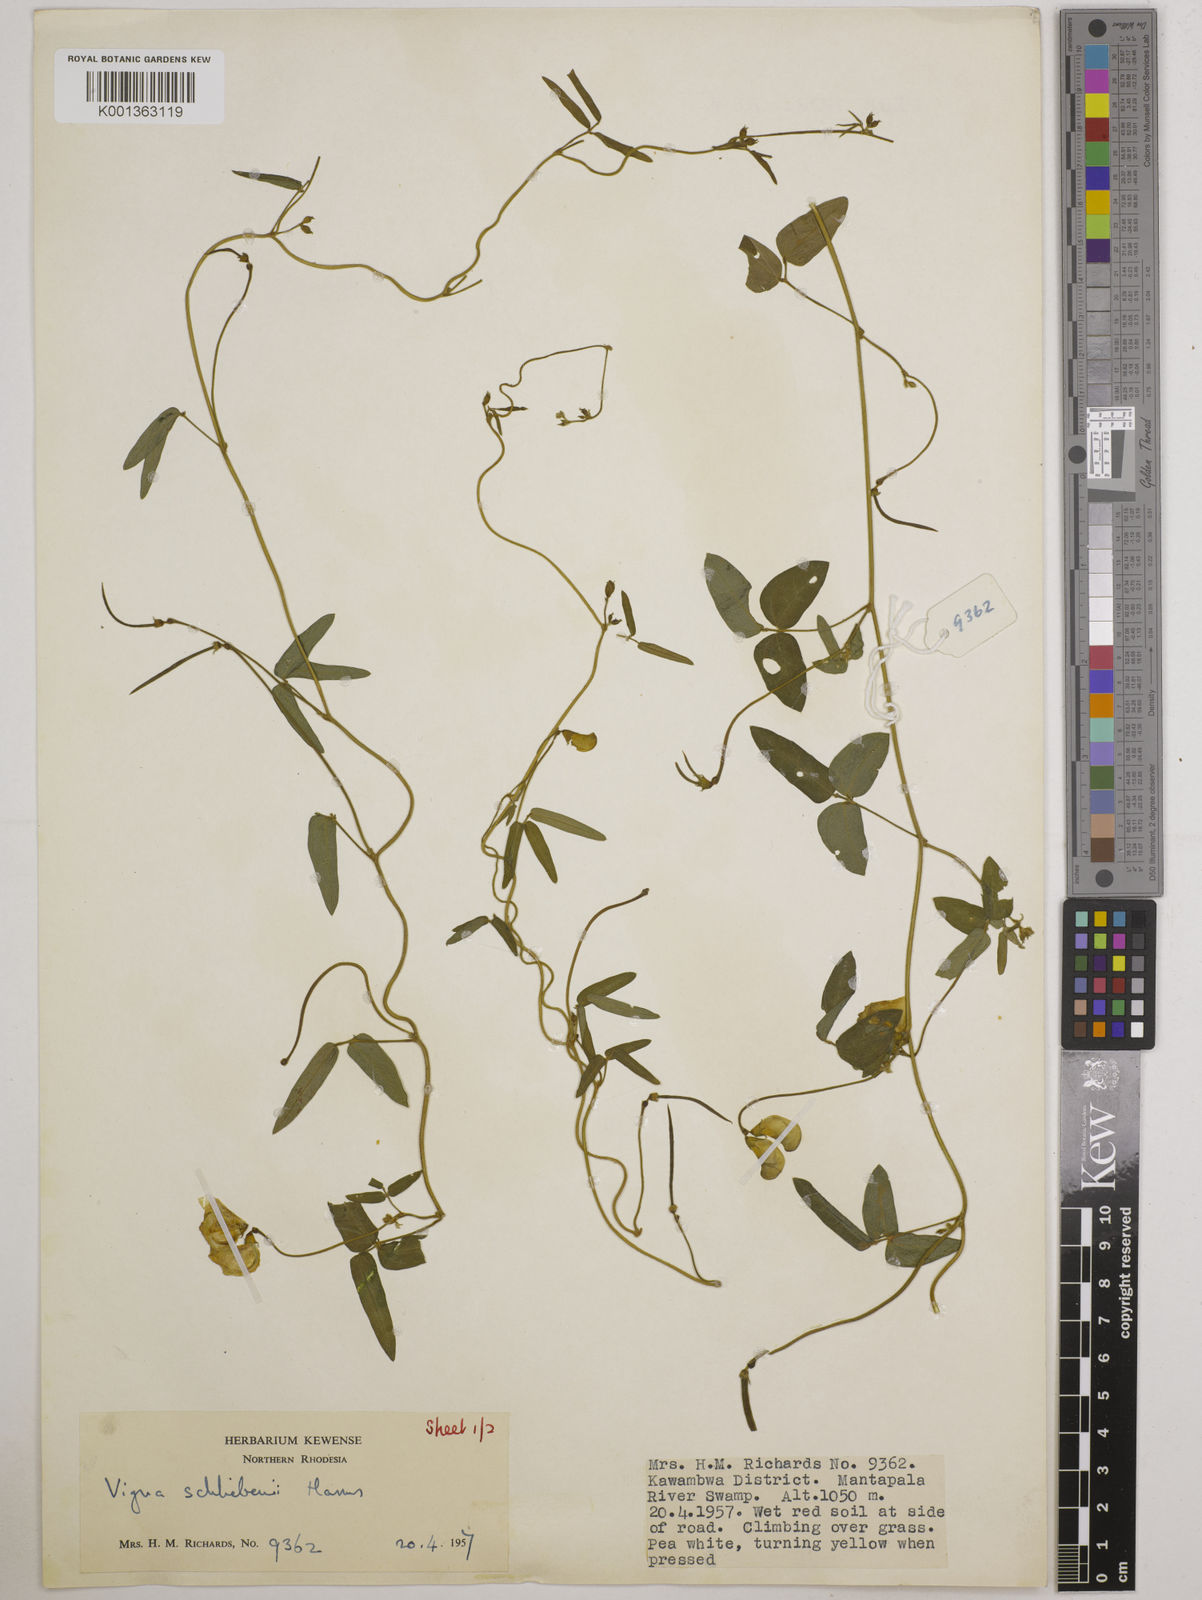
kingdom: Plantae
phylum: Tracheophyta
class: Magnoliopsida
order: Fabales
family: Fabaceae
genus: Vigna
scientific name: Vigna kirkii
